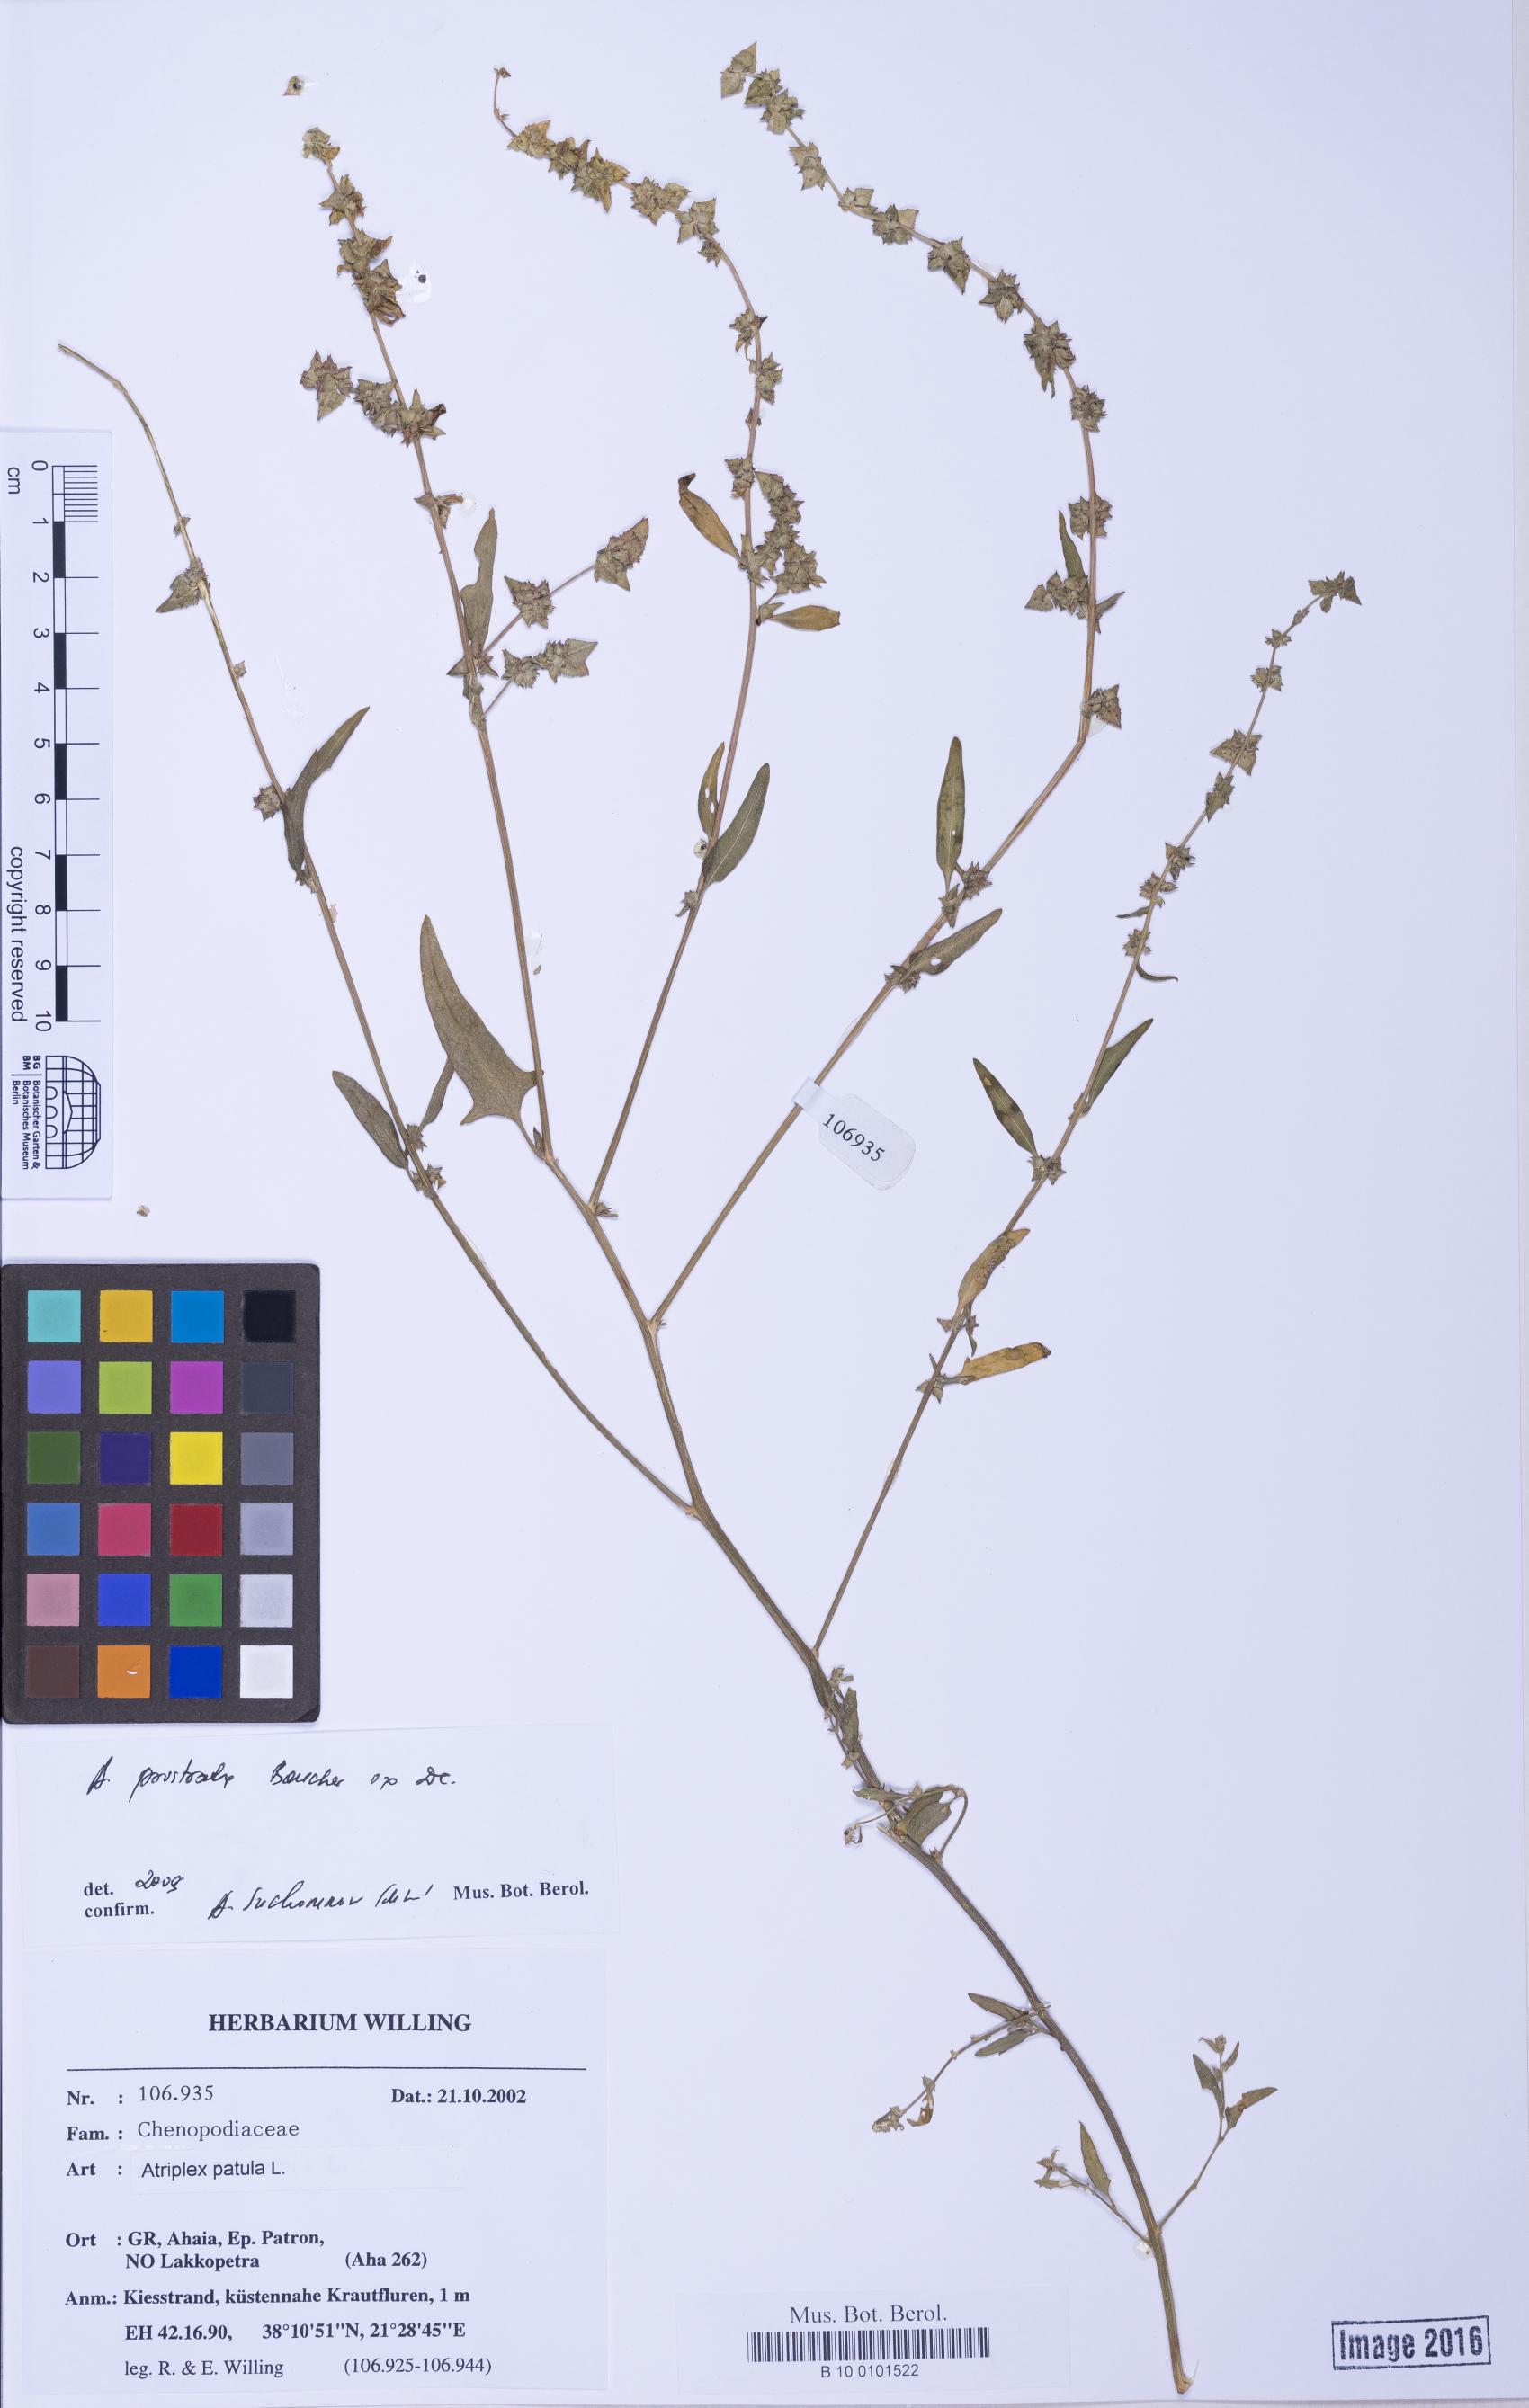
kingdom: Plantae
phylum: Tracheophyta
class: Magnoliopsida
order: Caryophyllales
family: Amaranthaceae
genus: Atriplex
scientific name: Atriplex prostrata
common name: Spear-leaved orache
